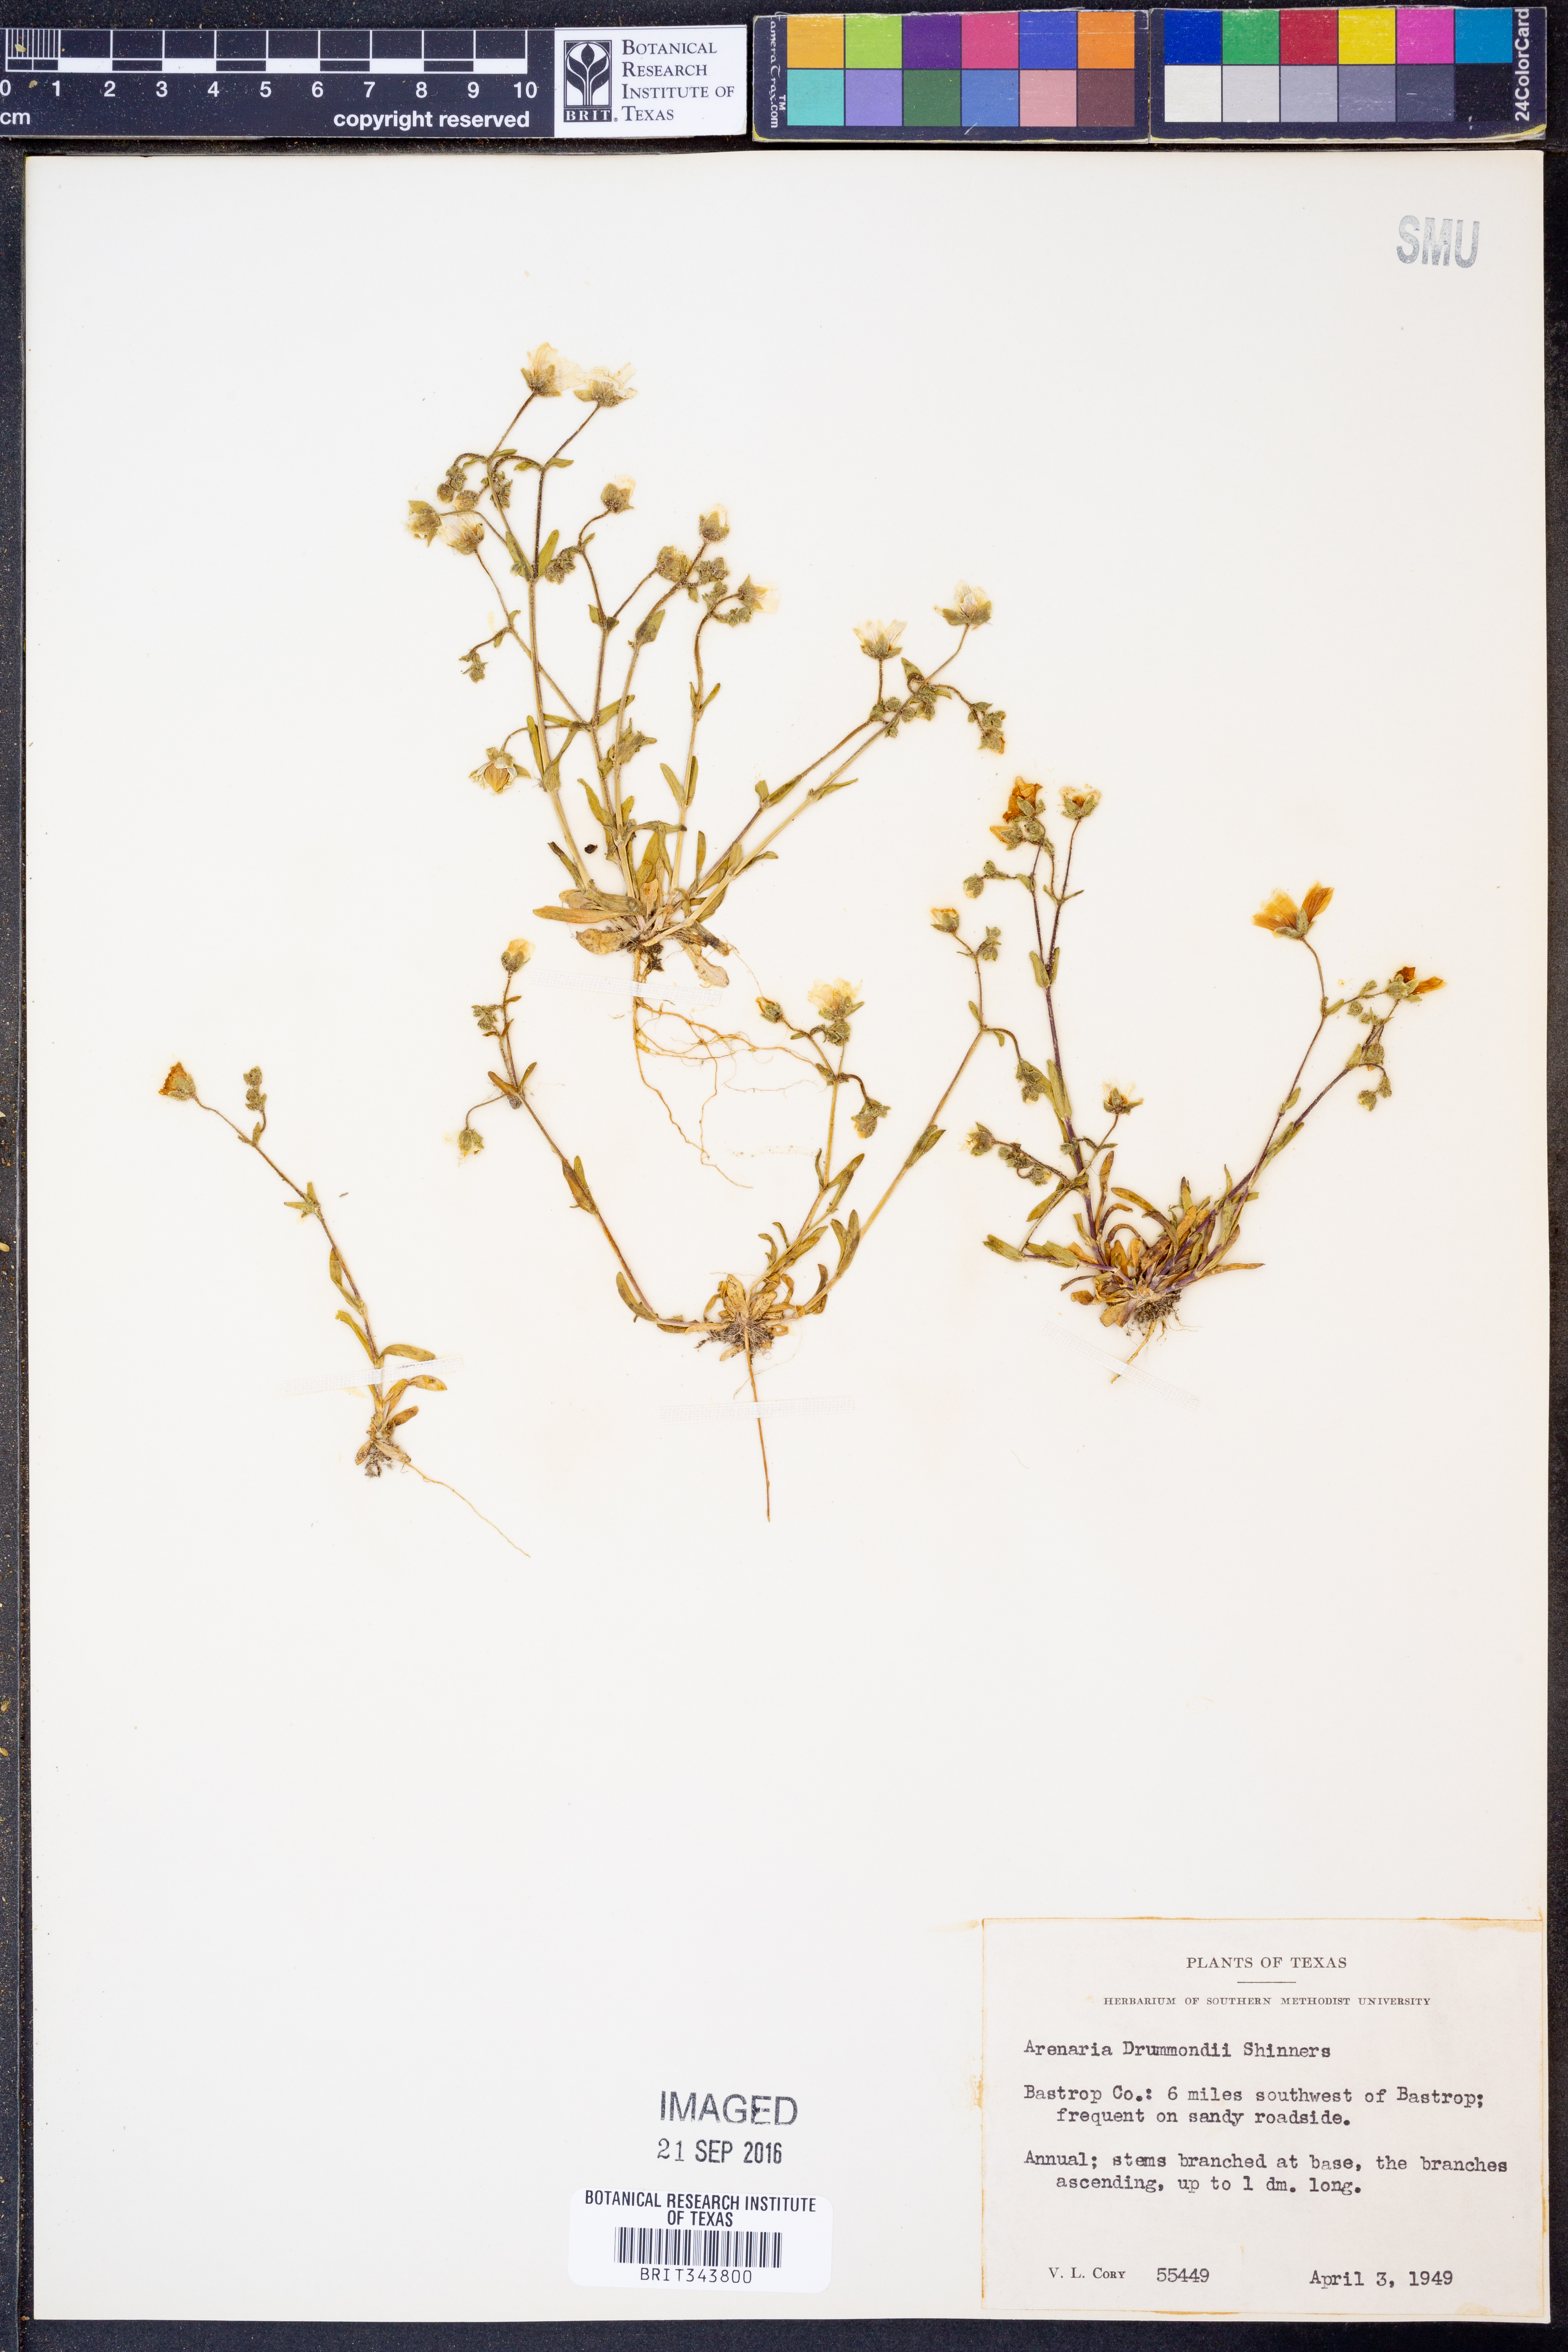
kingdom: Plantae
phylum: Tracheophyta
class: Magnoliopsida
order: Caryophyllales
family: Caryophyllaceae
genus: Geocarpon
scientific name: Geocarpon nuttallii
